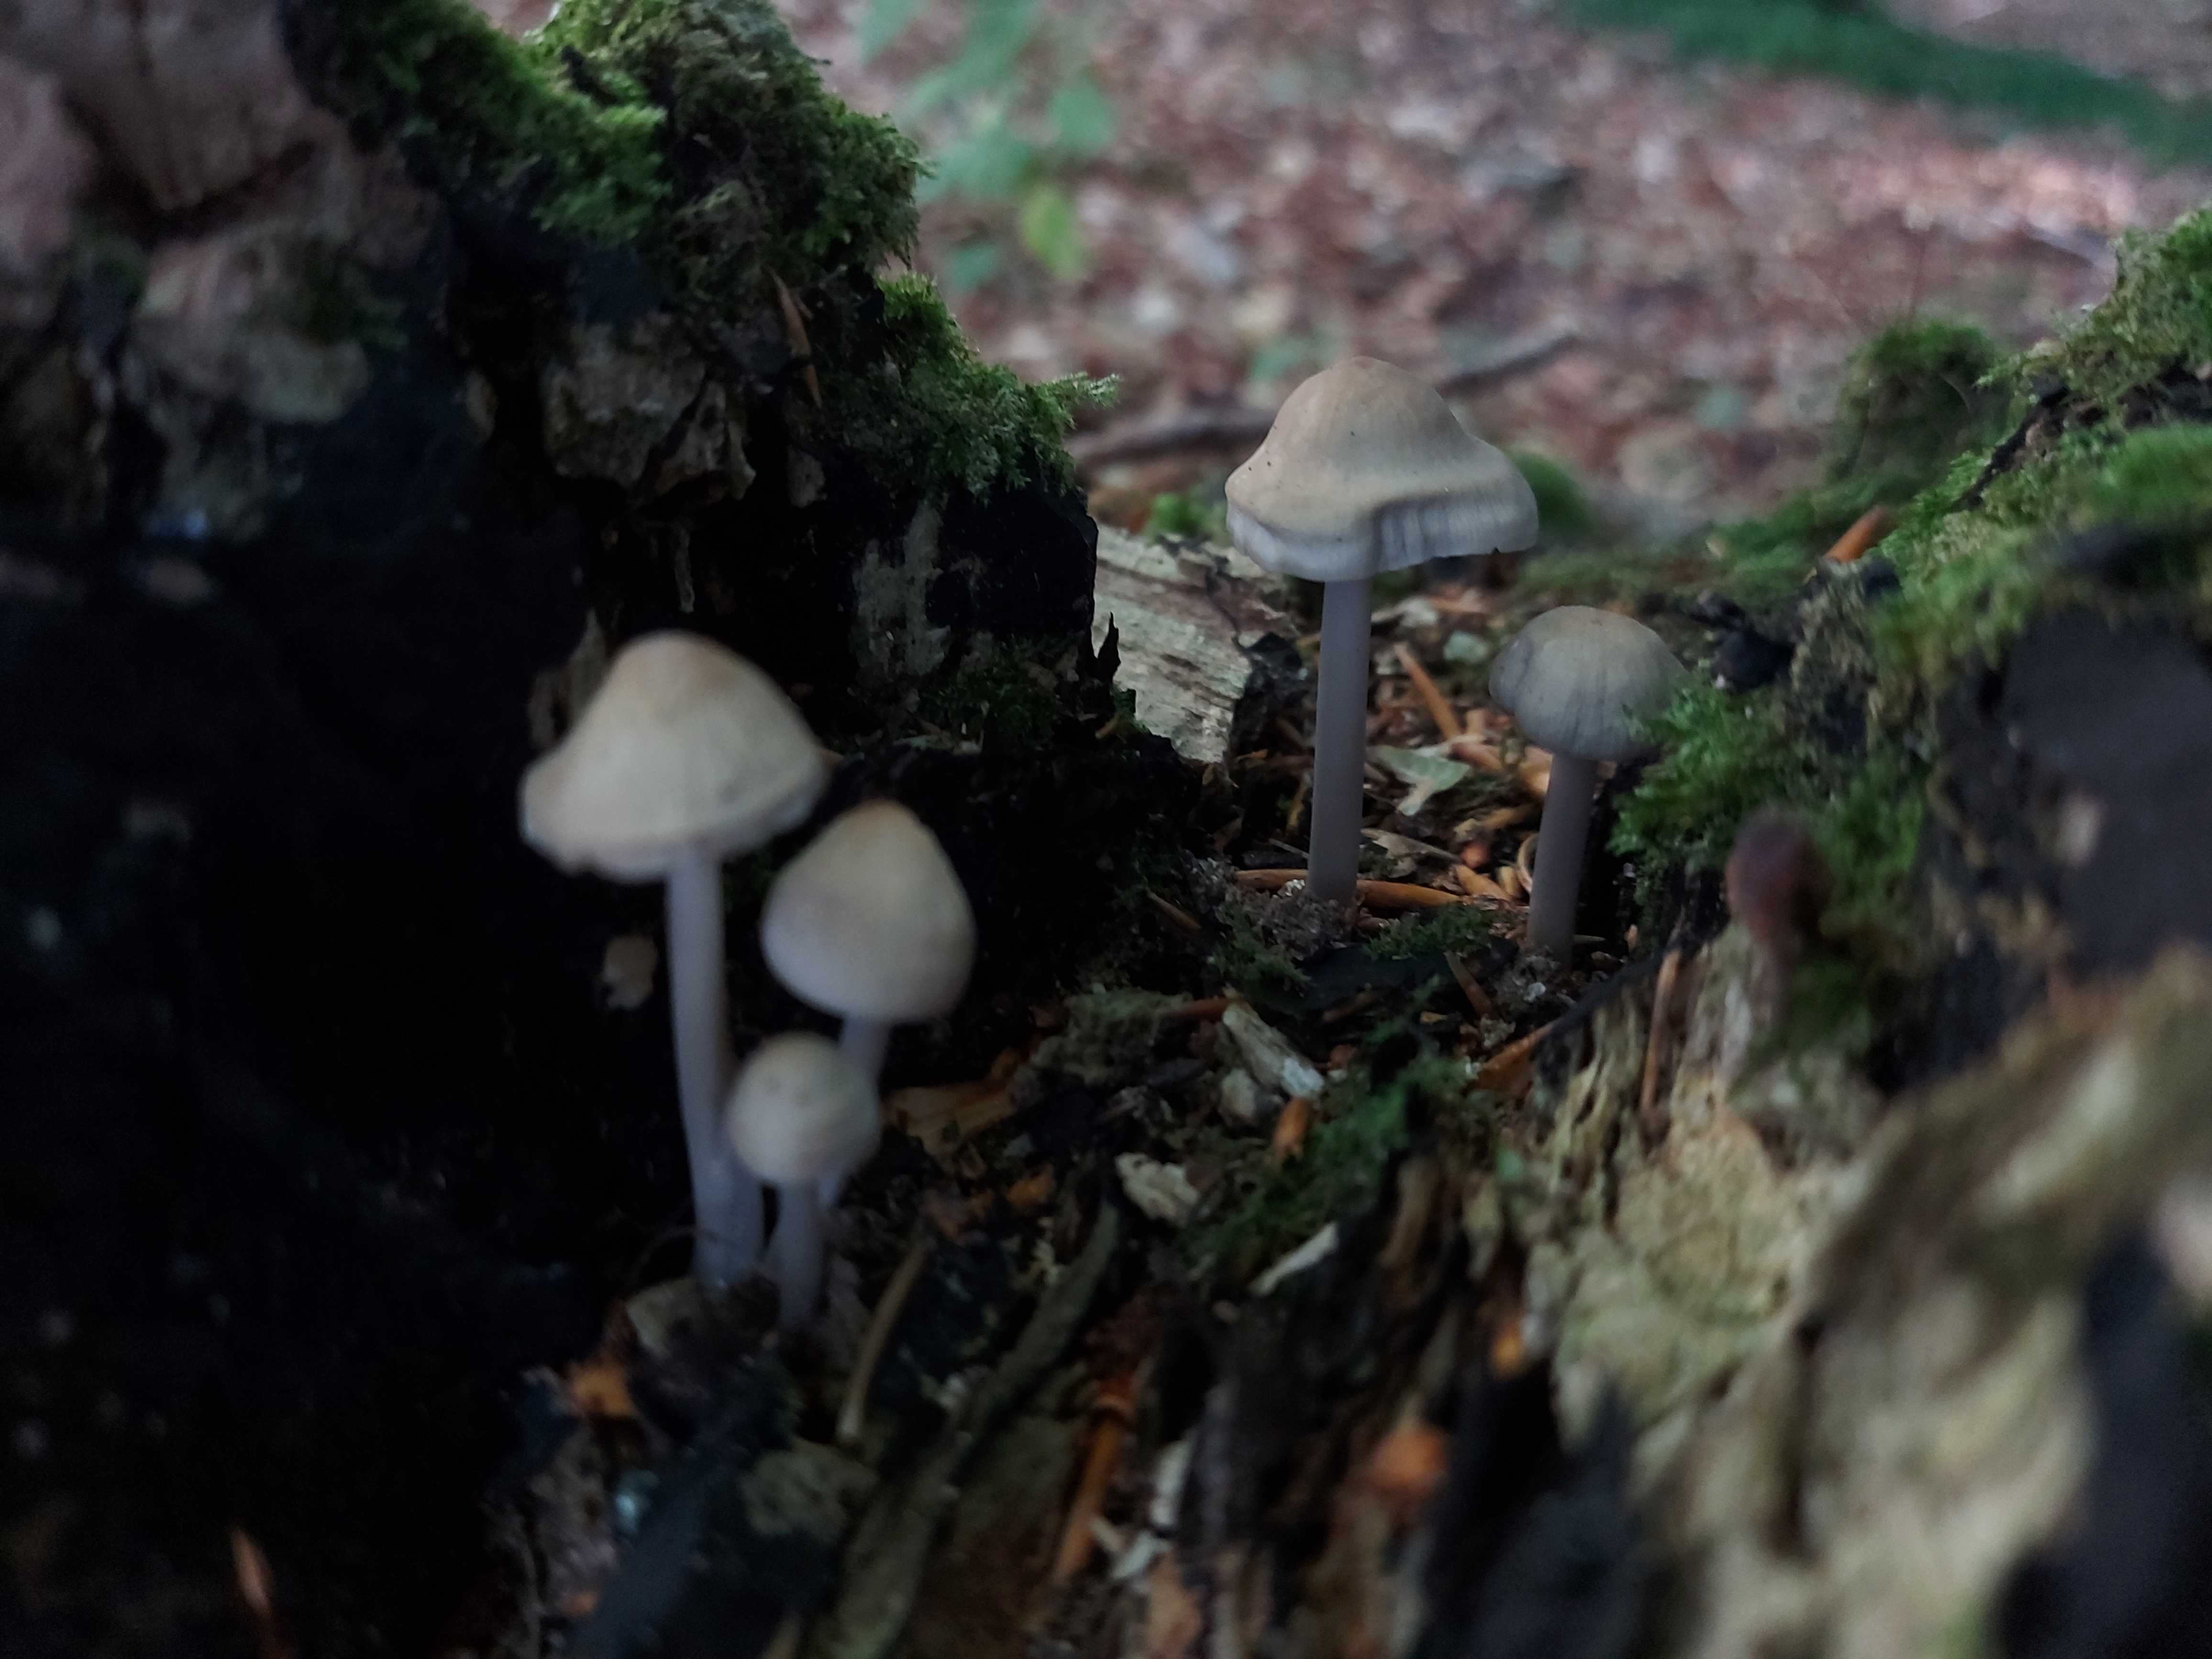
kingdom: Fungi
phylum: Basidiomycota
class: Agaricomycetes
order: Agaricales
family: Mycenaceae
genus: Mycena
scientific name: Mycena galericulata
